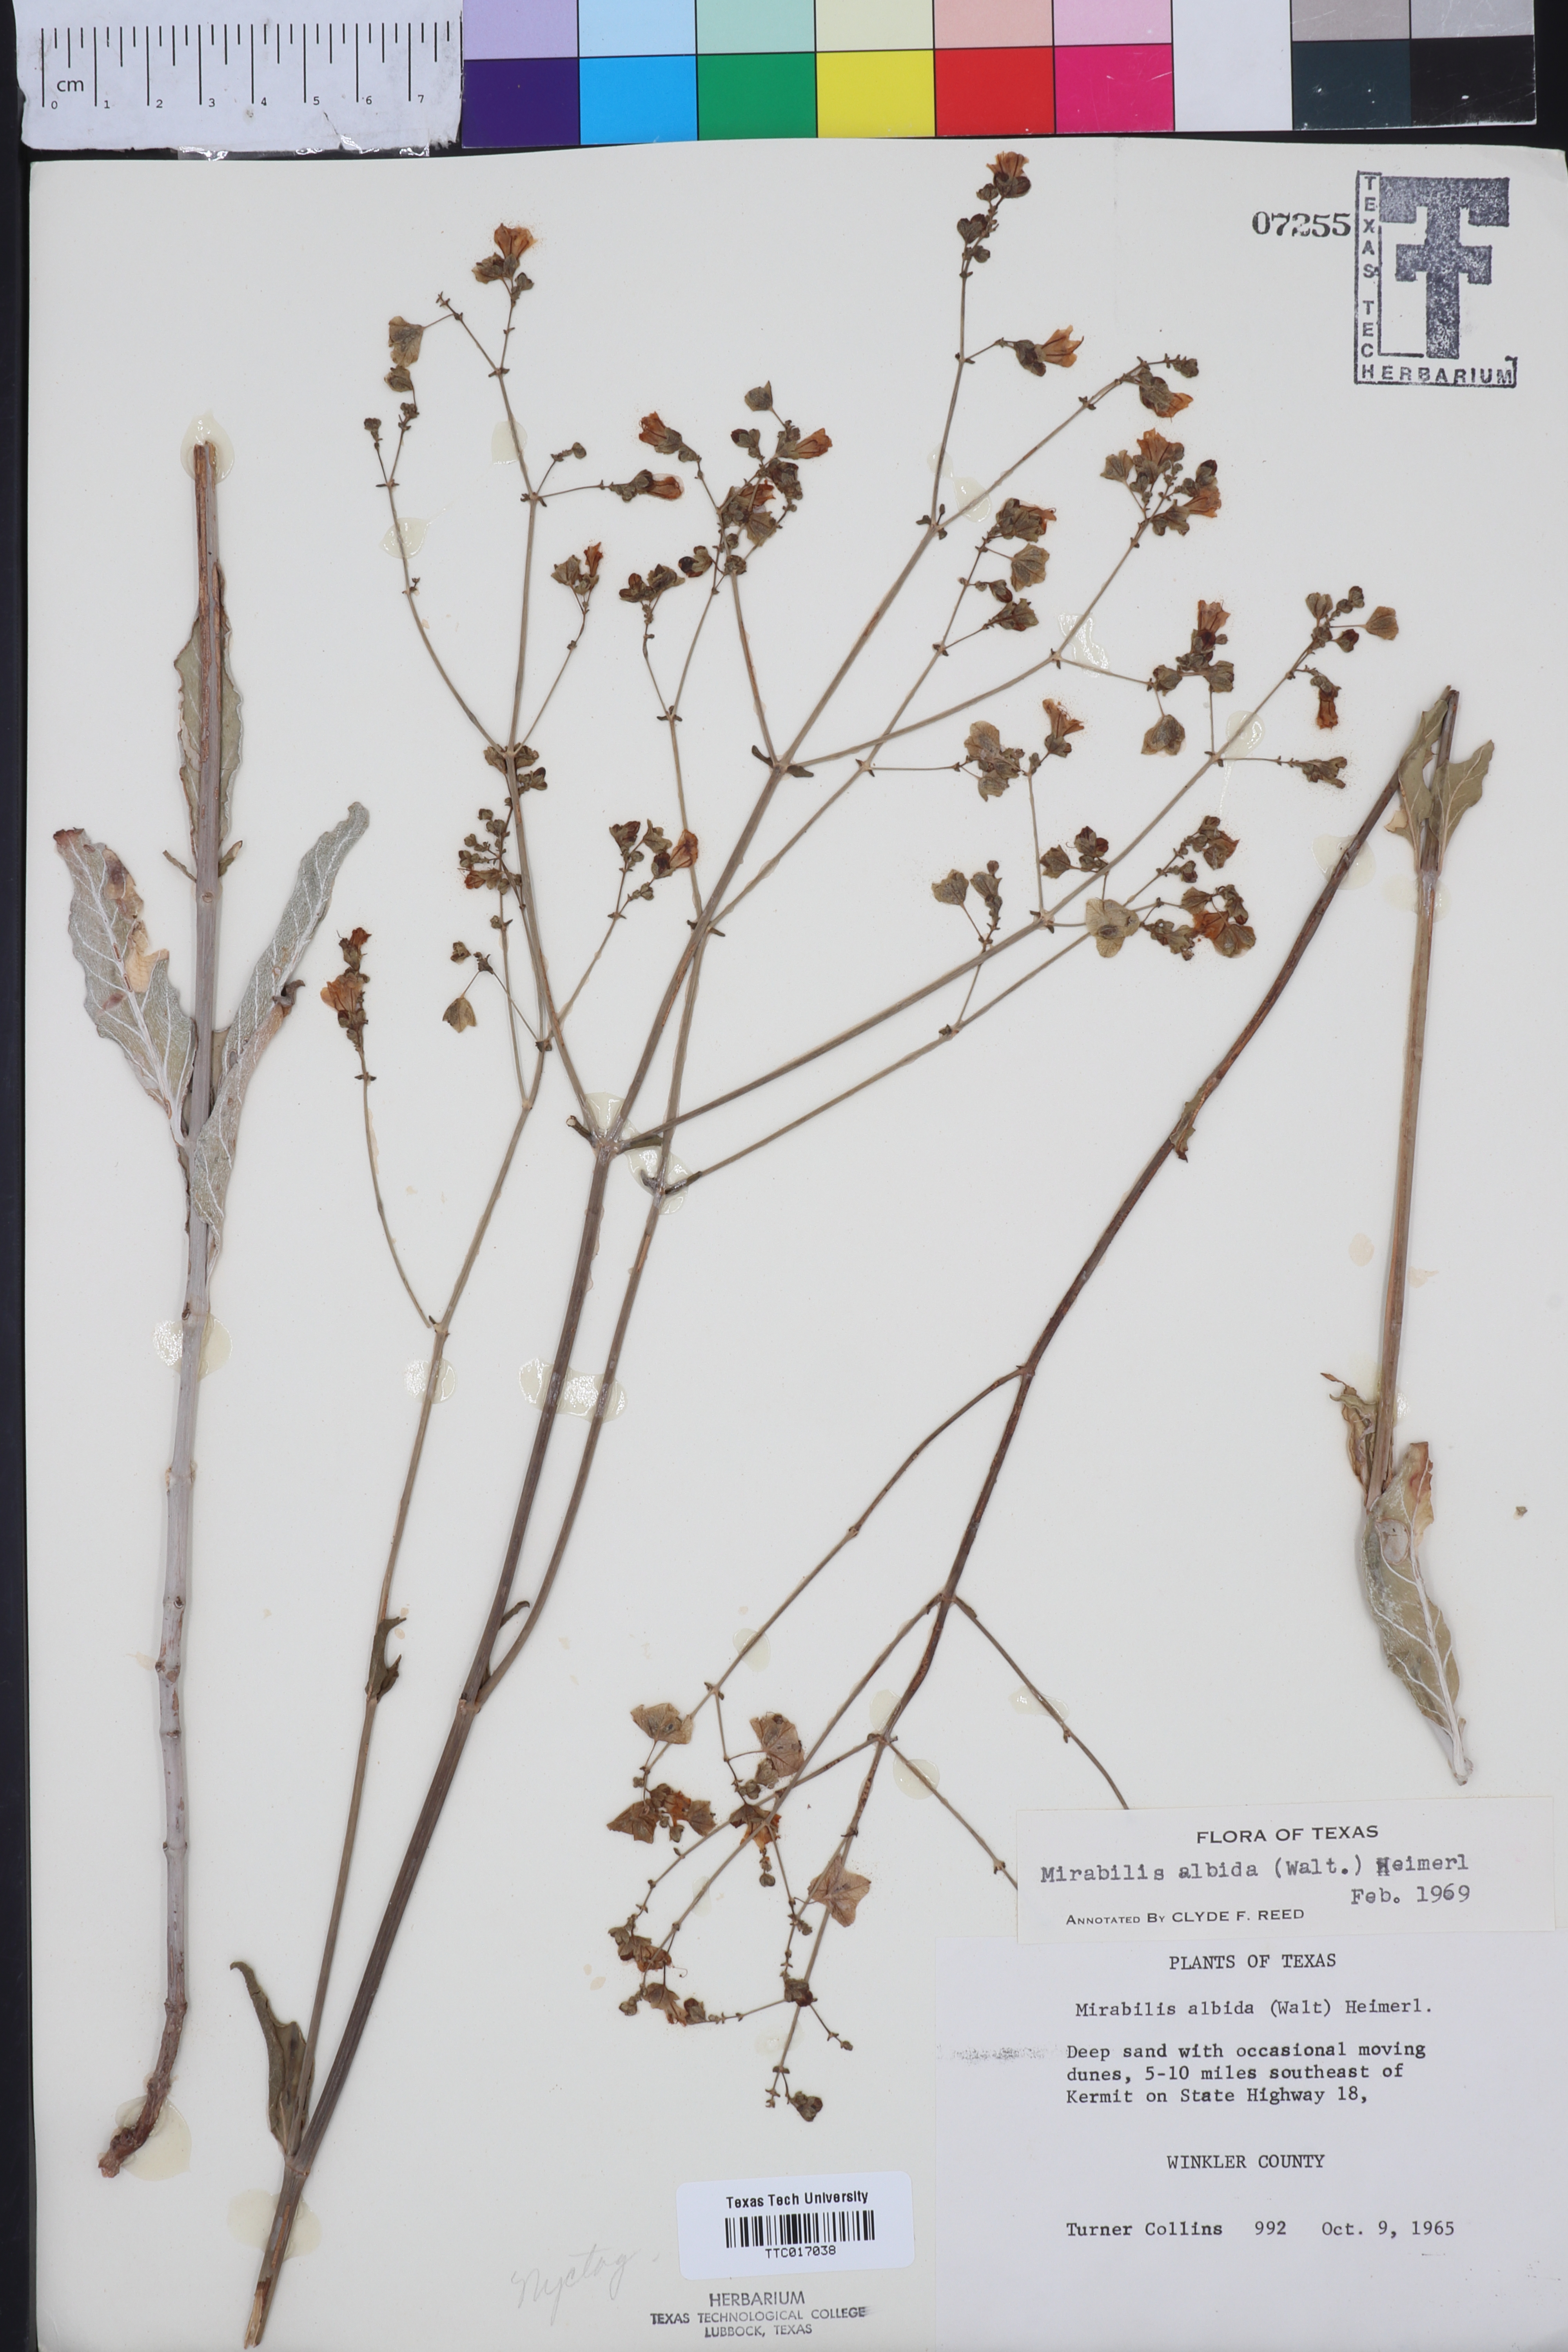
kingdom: Plantae
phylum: Tracheophyta
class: Magnoliopsida
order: Caryophyllales
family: Nyctaginaceae
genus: Mirabilis
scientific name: Mirabilis albida
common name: Hairy four-o'clock
